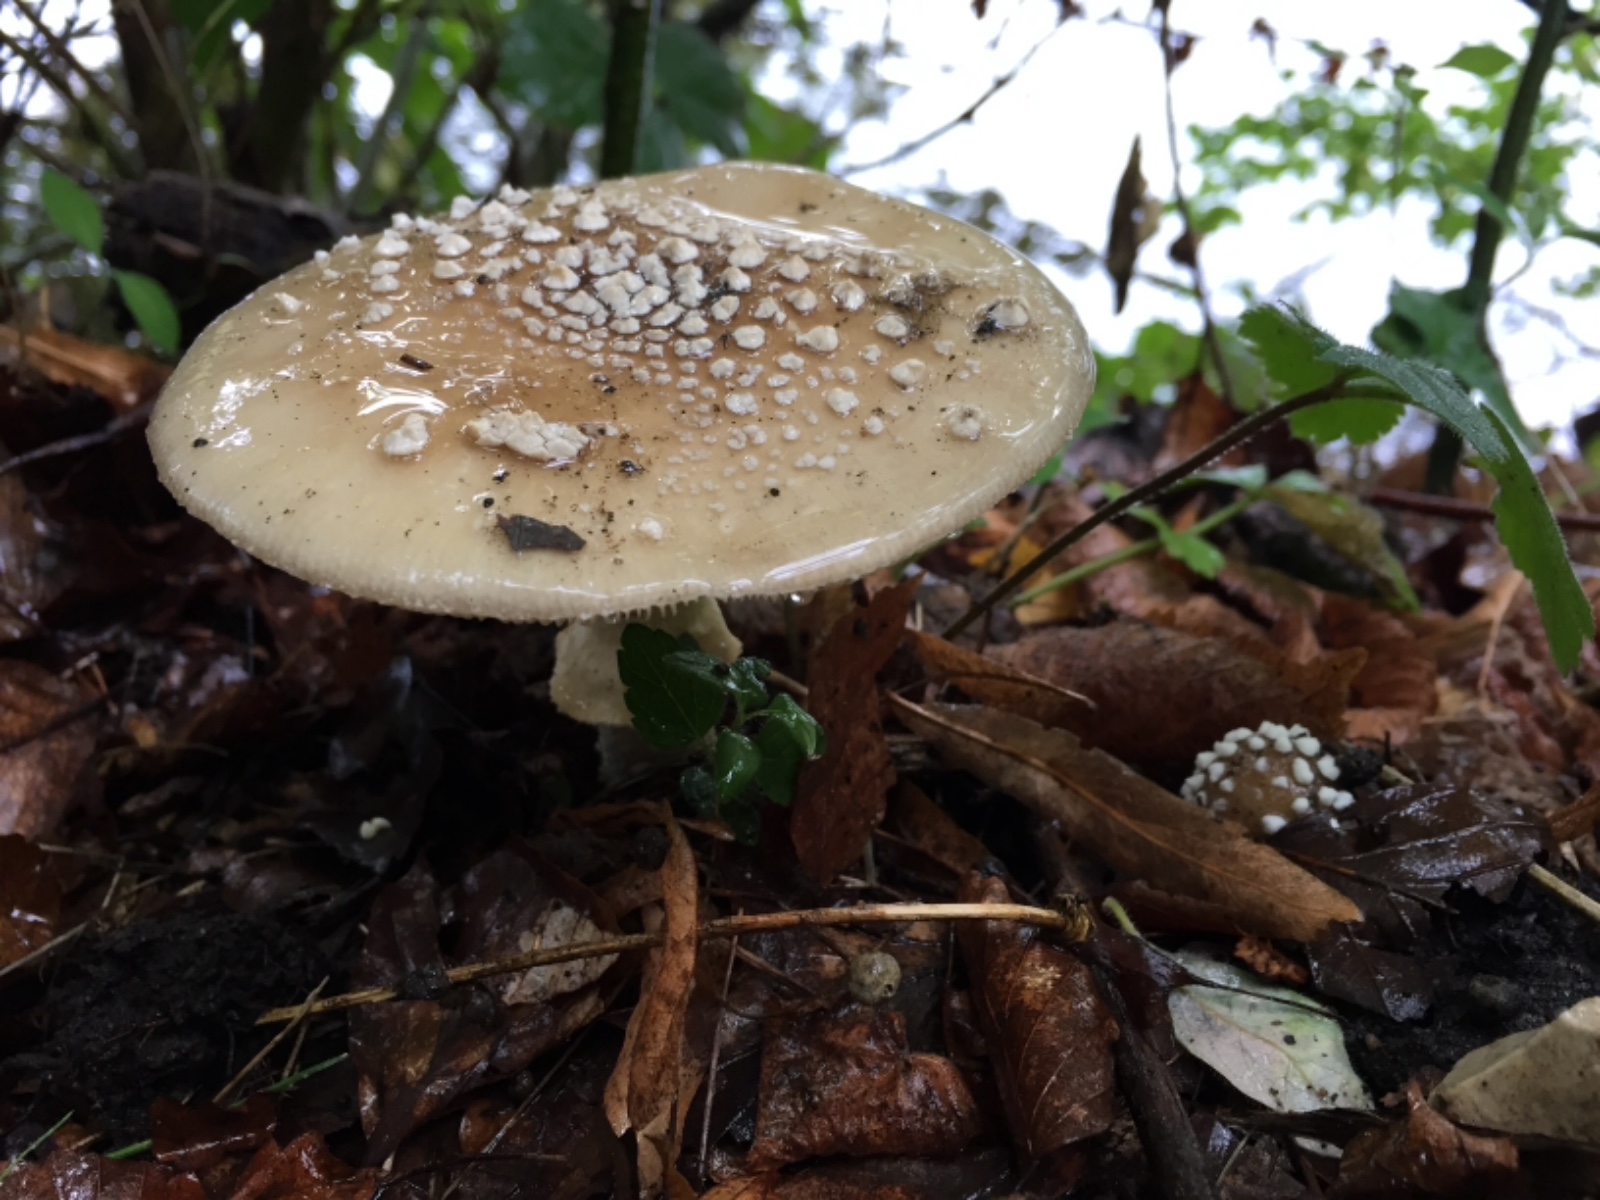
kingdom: Fungi
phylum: Basidiomycota
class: Agaricomycetes
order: Agaricales
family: Amanitaceae
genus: Amanita
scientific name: Amanita pantherina
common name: panter-fluesvamp
